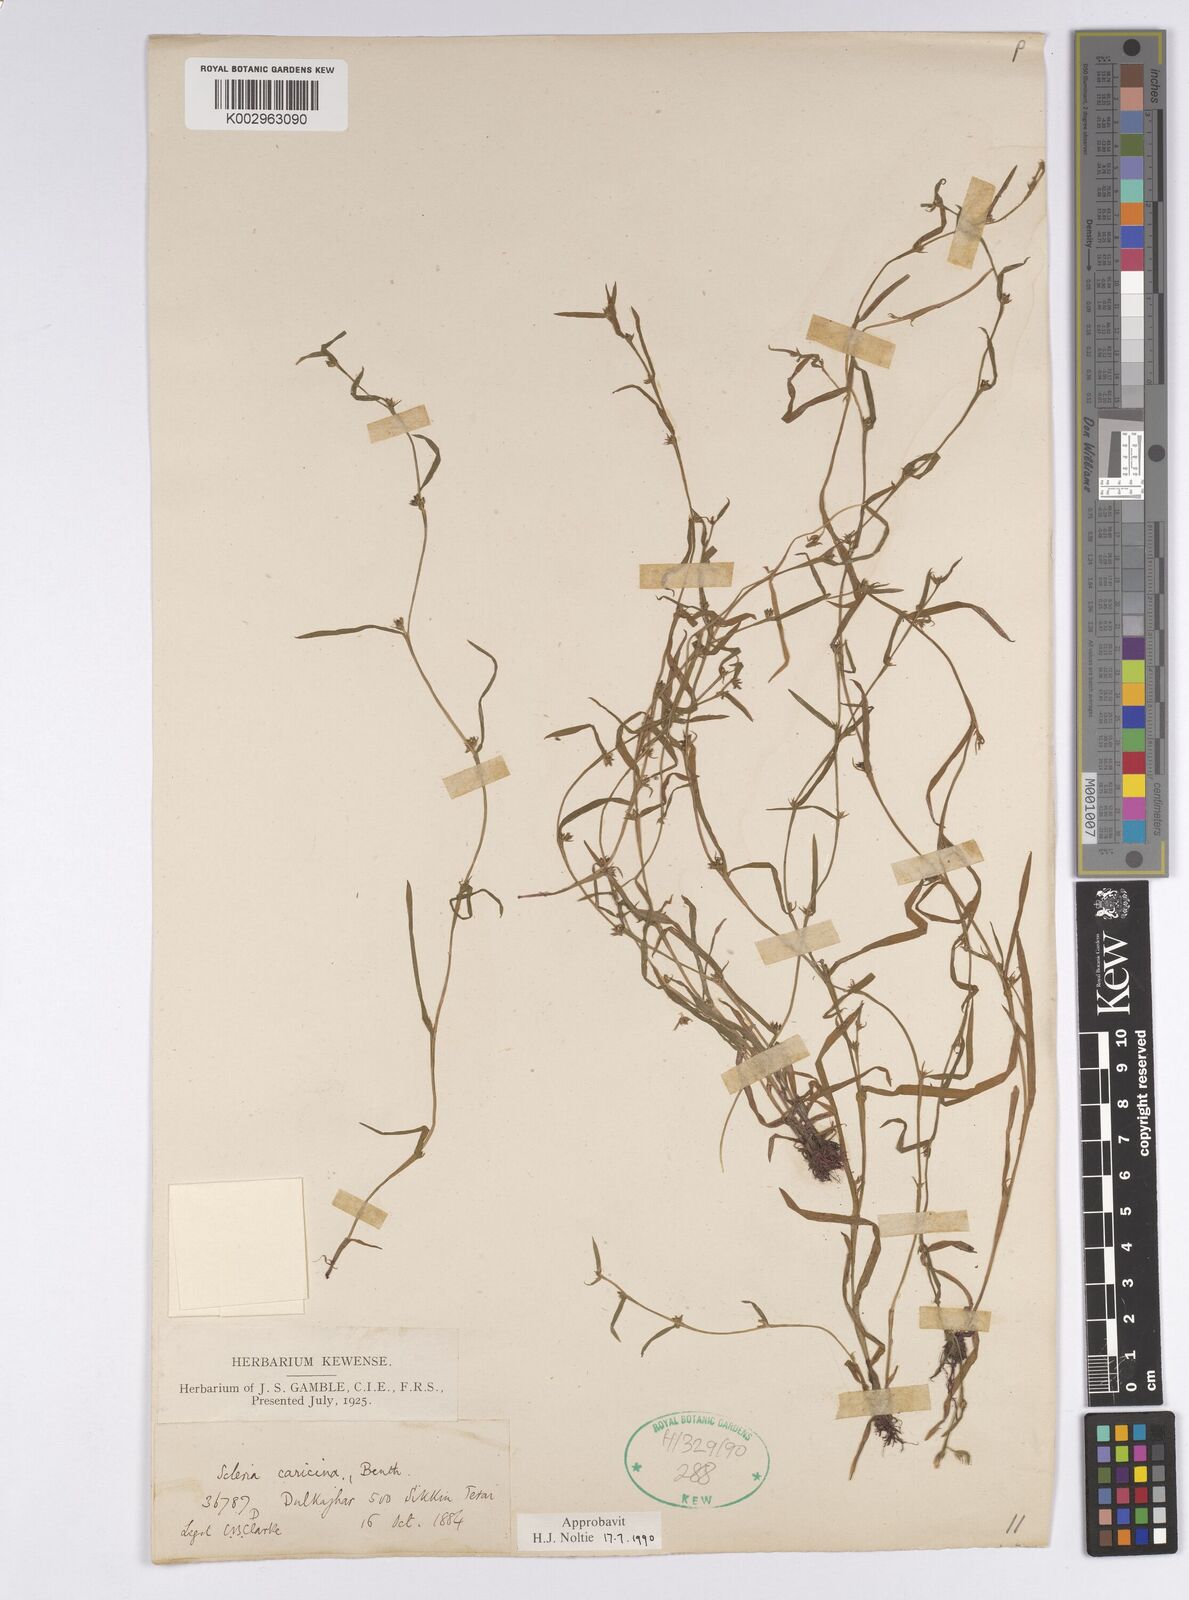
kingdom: Plantae
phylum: Tracheophyta
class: Liliopsida
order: Poales
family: Cyperaceae
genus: Diplacrum
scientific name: Diplacrum caricinum
